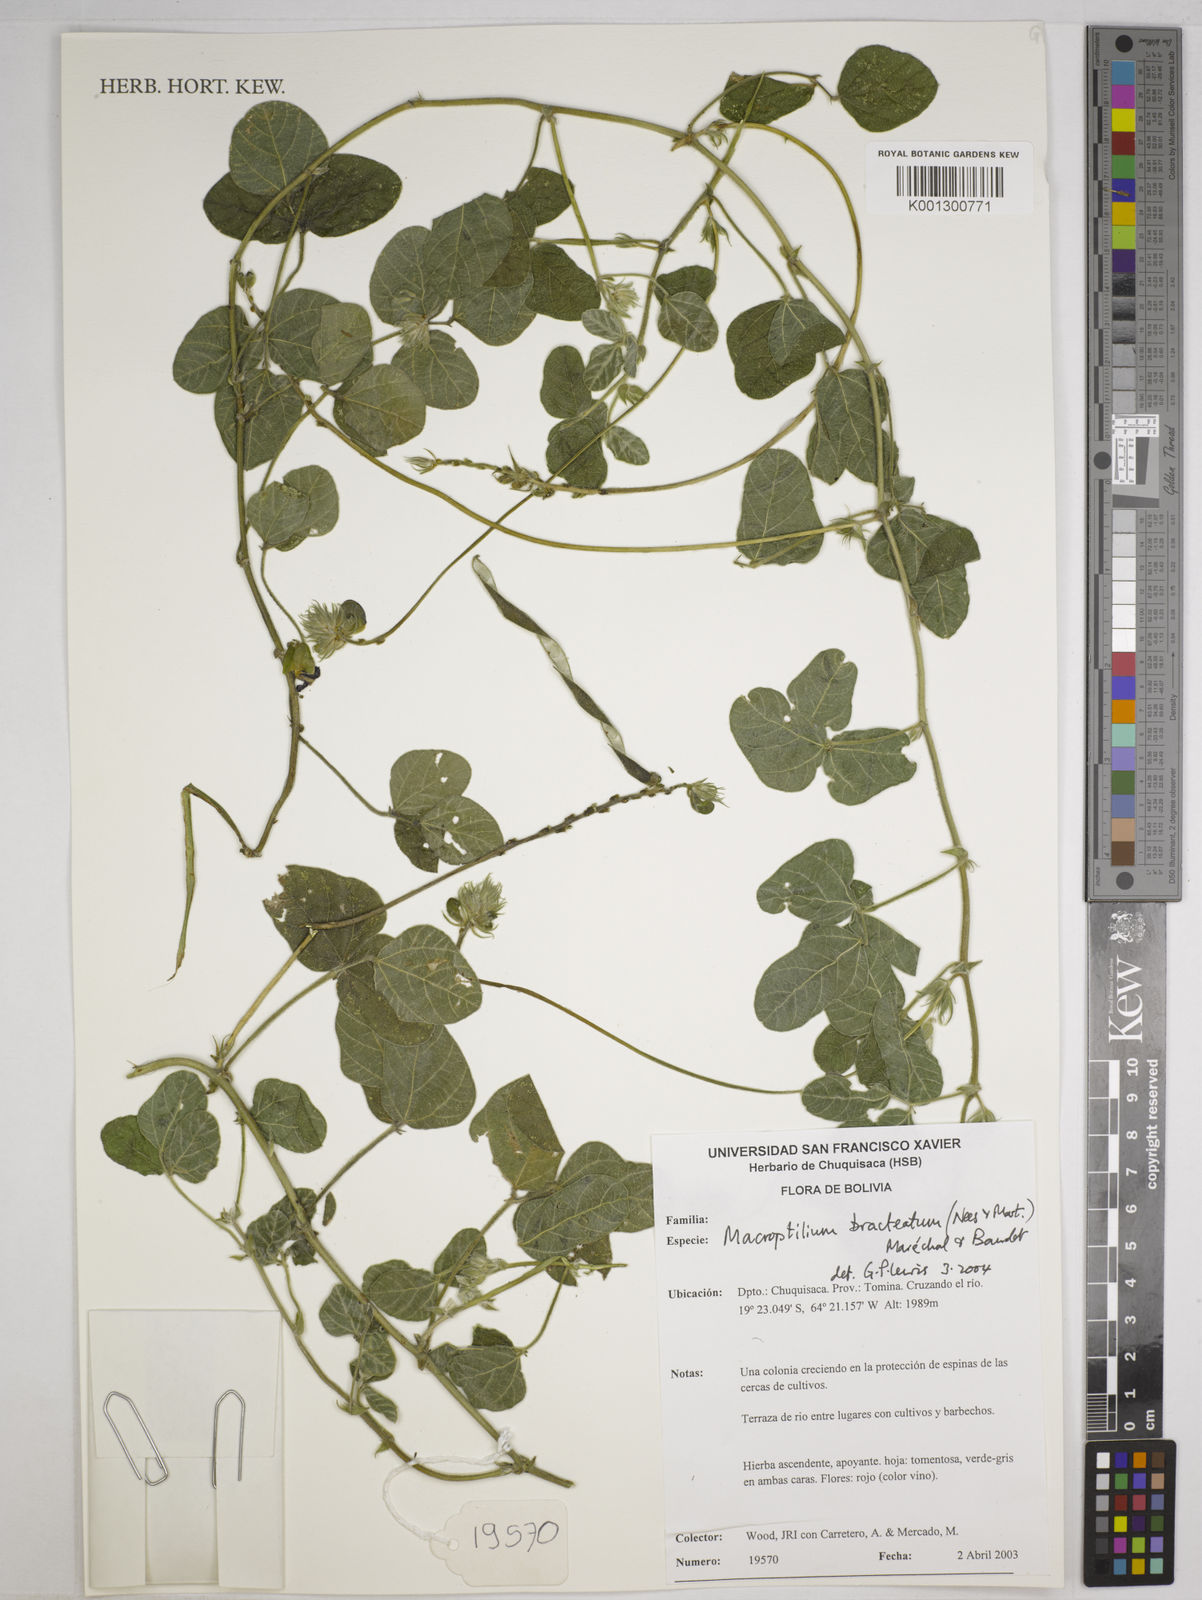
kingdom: Plantae
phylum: Tracheophyta
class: Magnoliopsida
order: Fabales
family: Fabaceae
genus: Macroptilium
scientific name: Macroptilium bracteatum
